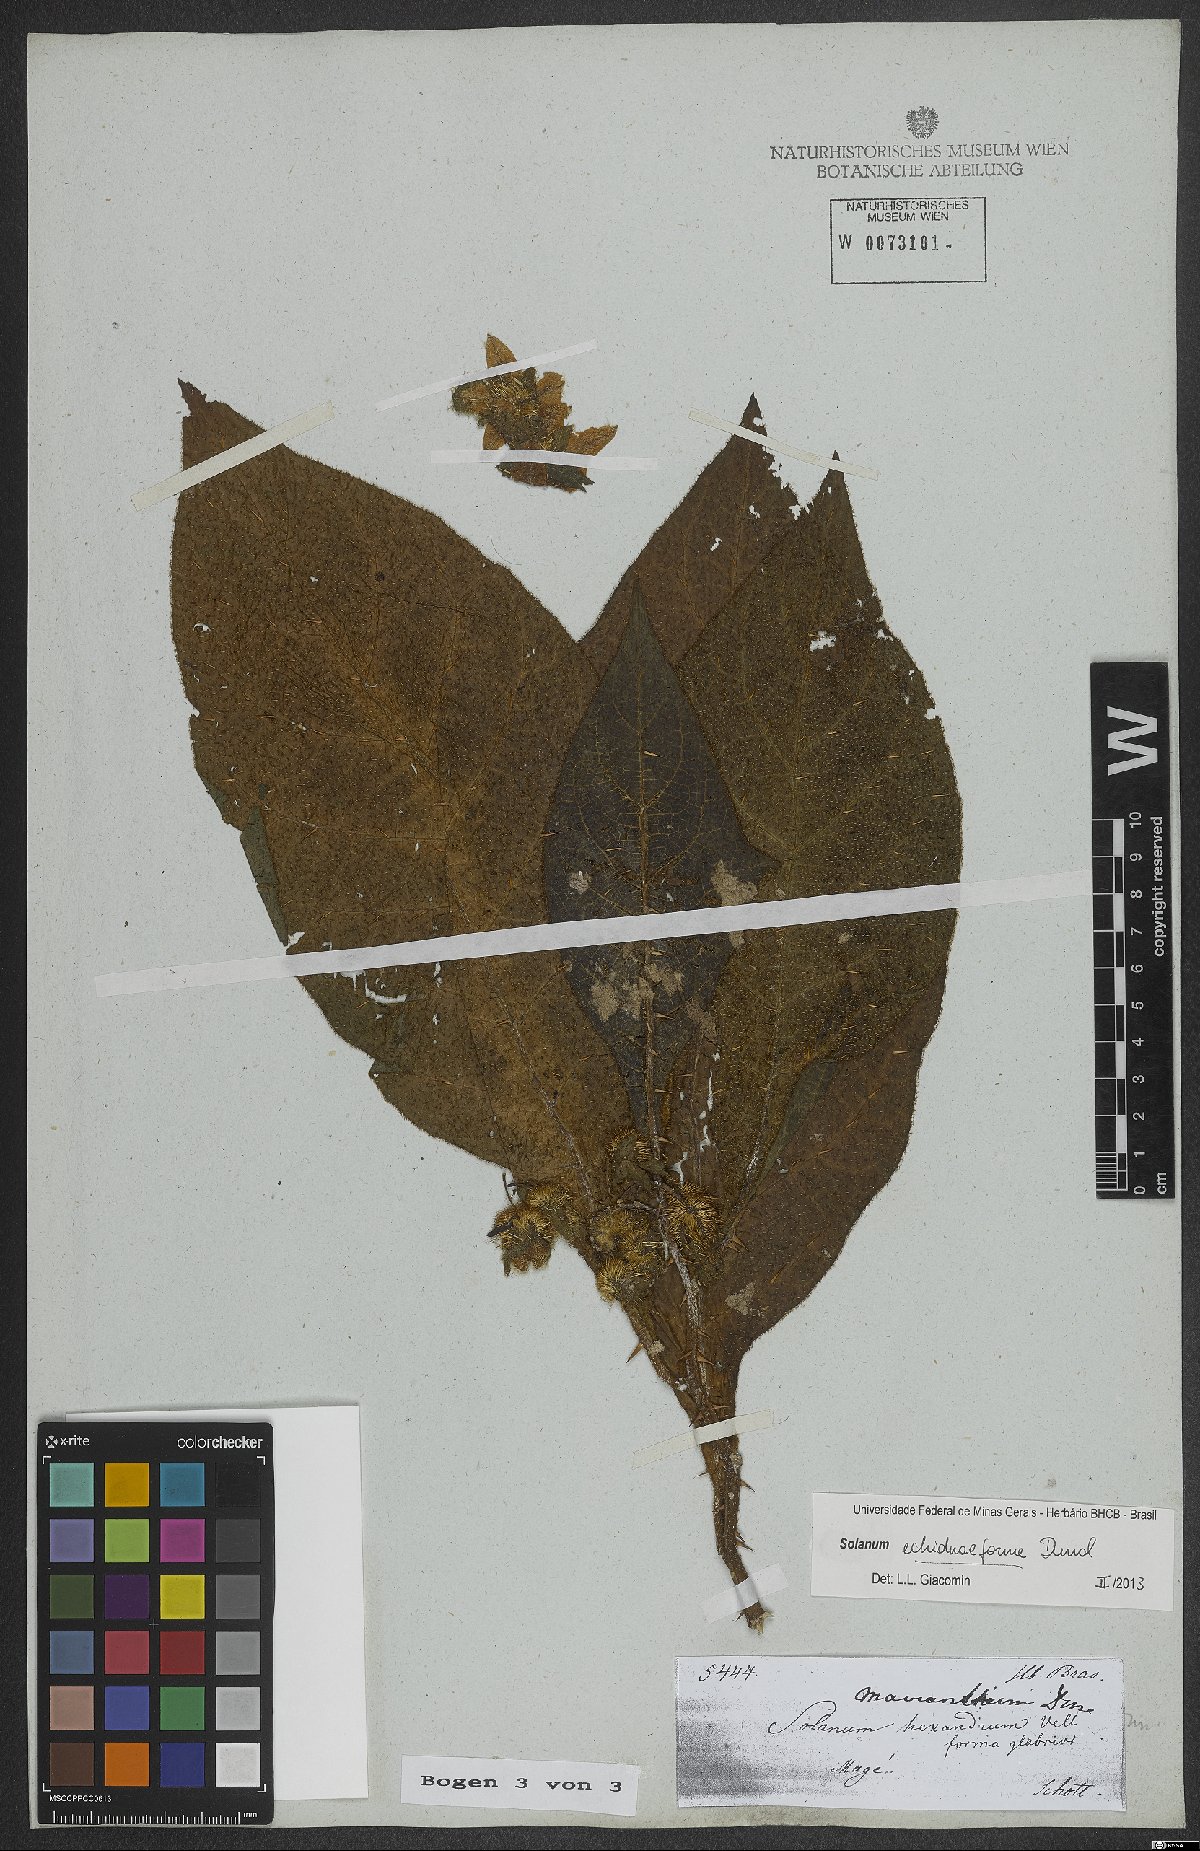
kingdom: Plantae
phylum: Tracheophyta
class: Magnoliopsida
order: Solanales
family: Solanaceae
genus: Solanum
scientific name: Solanum hexandrum
